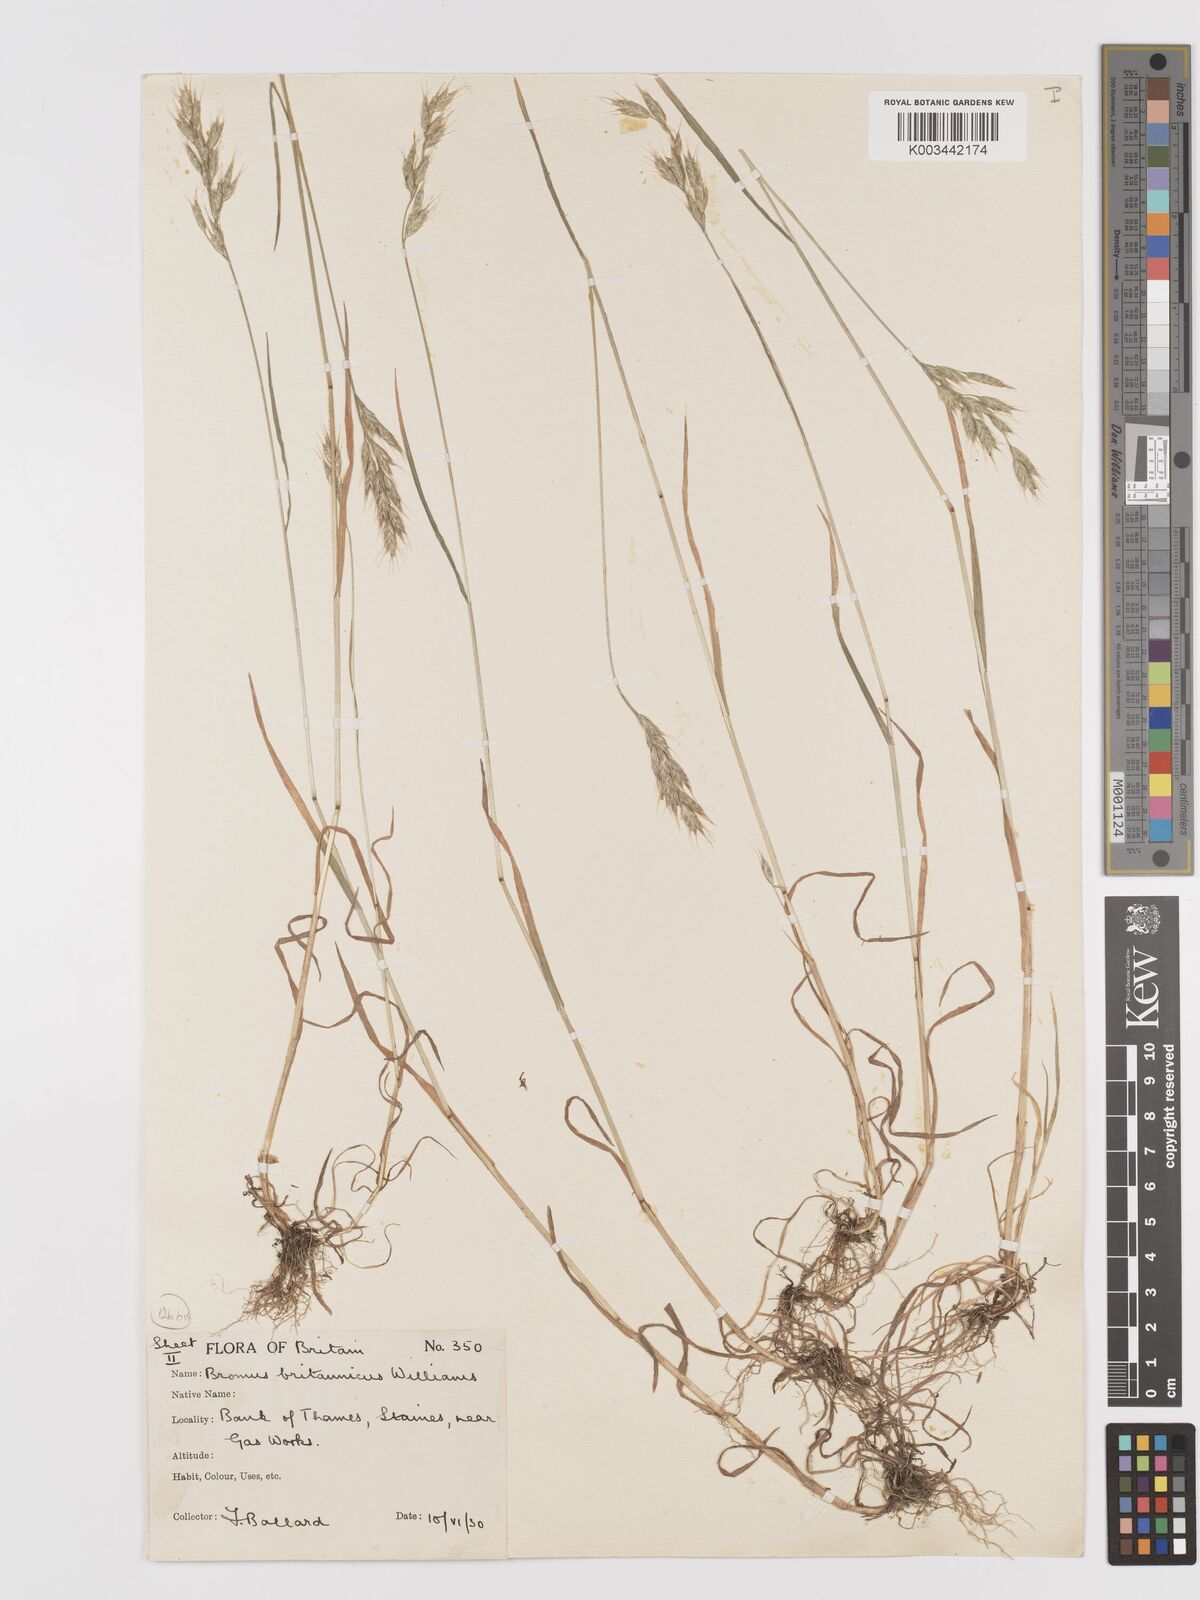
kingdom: Plantae
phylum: Tracheophyta
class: Liliopsida
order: Poales
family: Poaceae
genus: Bromus
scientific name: Bromus lepidus
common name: Slender soft-brome
